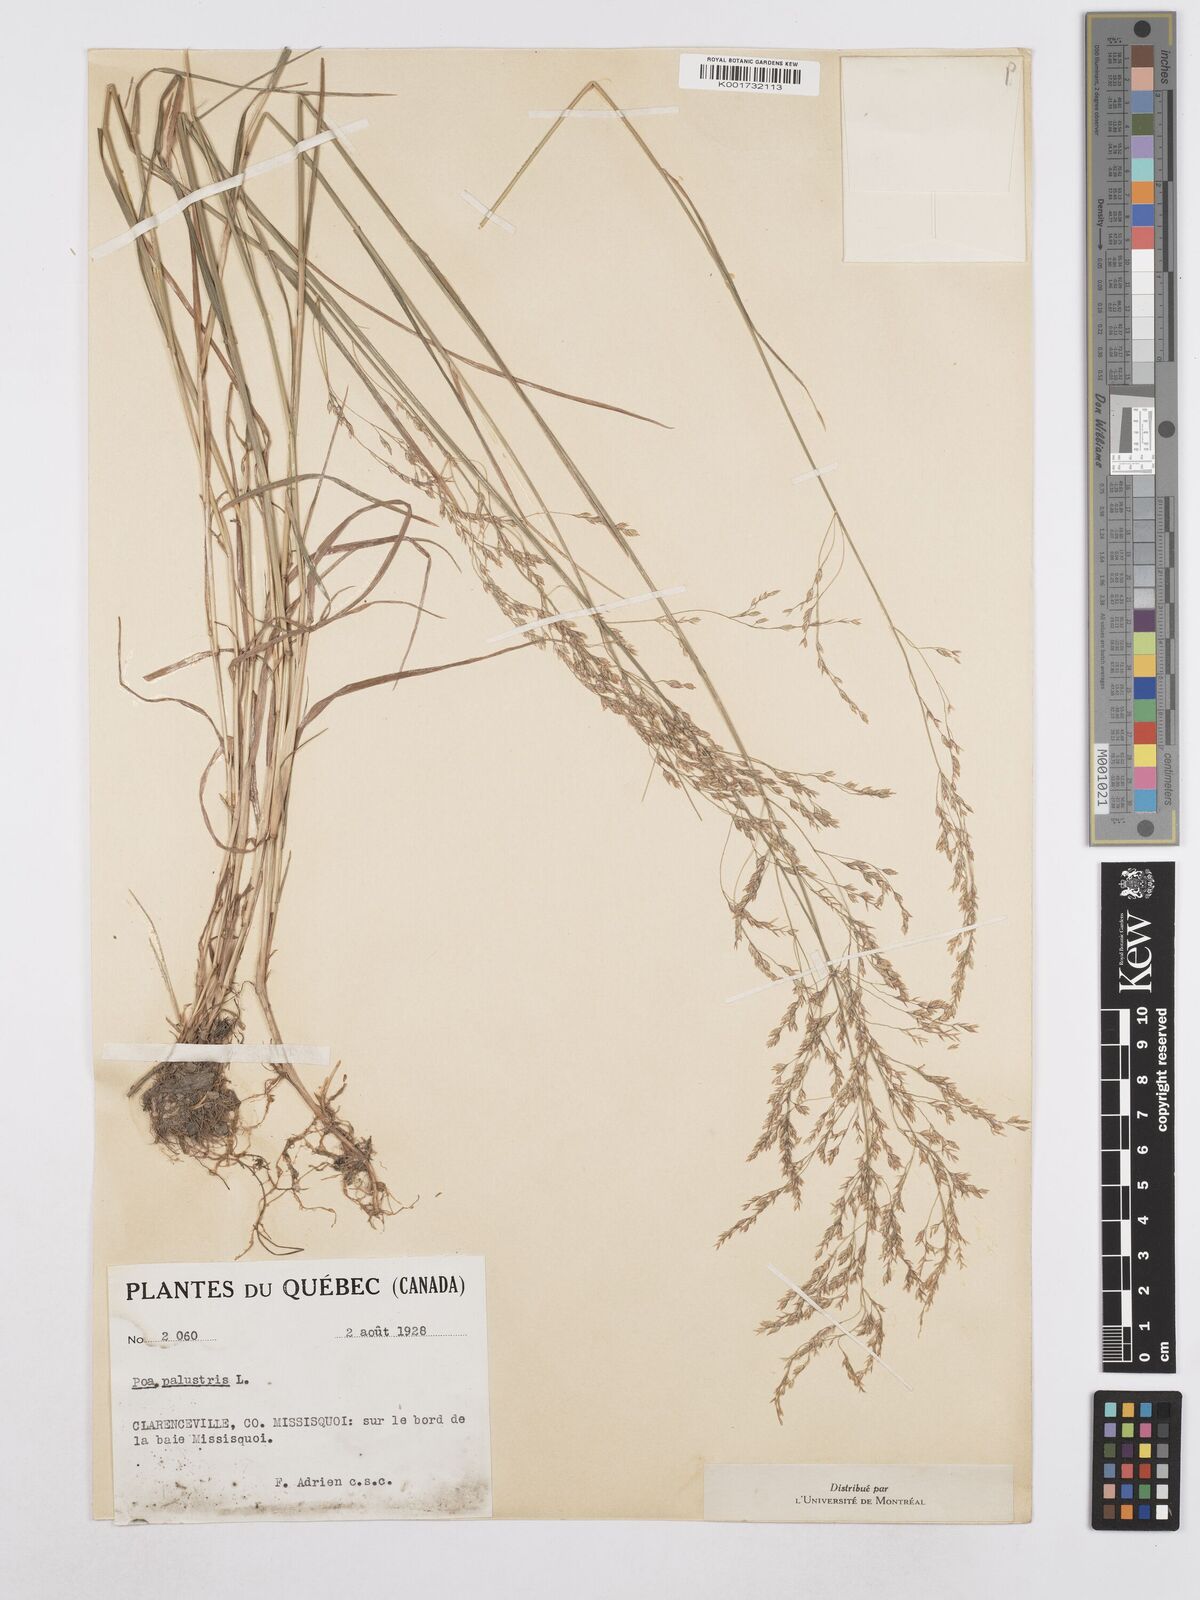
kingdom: Plantae
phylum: Tracheophyta
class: Liliopsida
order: Poales
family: Poaceae
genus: Poa
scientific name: Poa palustris
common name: Swamp meadow-grass
